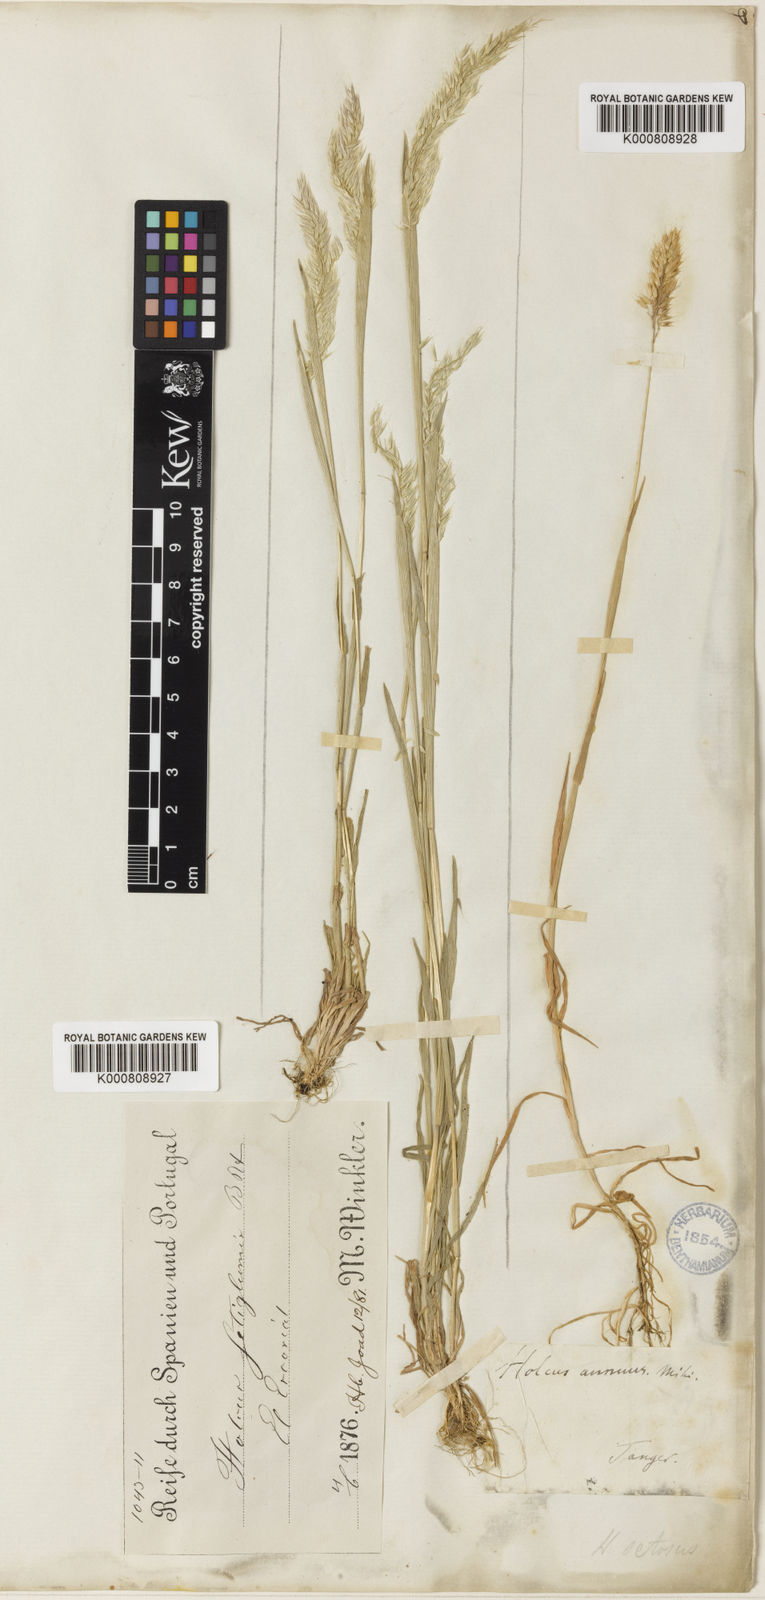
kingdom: Plantae
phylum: Tracheophyta
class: Liliopsida
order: Poales
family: Poaceae
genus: Holcus
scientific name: Holcus annuus
